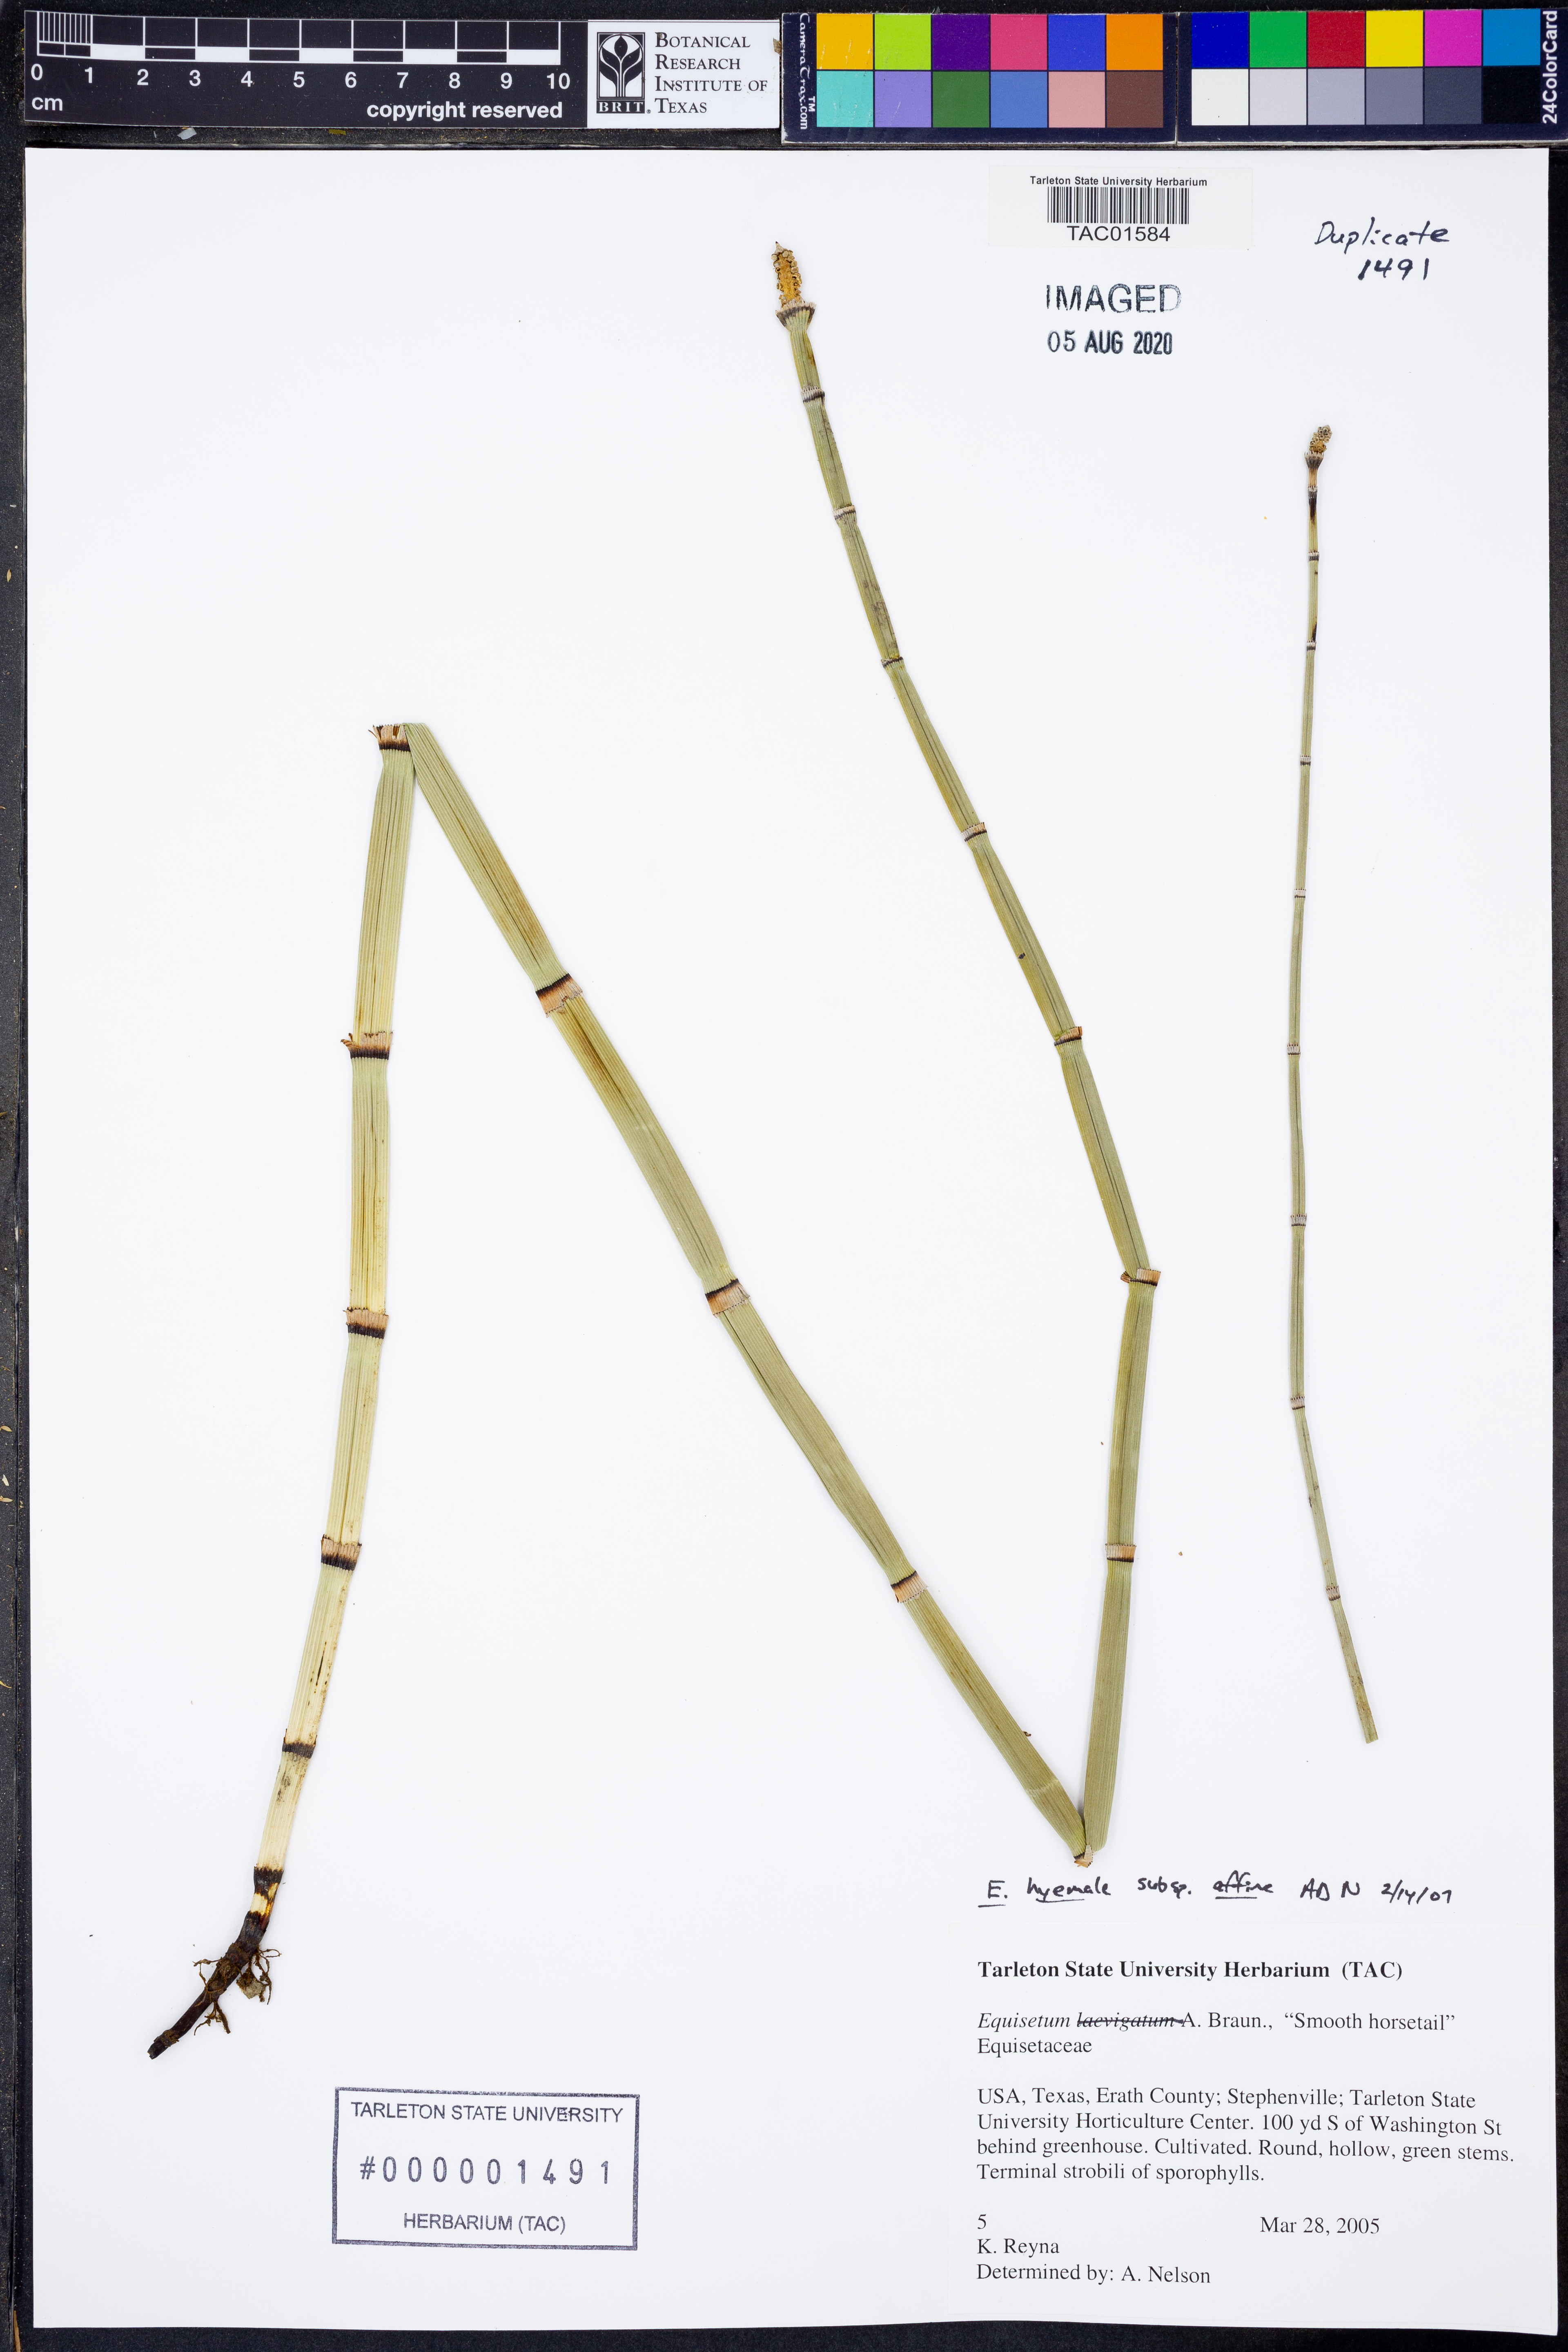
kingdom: Plantae
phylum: Tracheophyta
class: Polypodiopsida
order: Equisetales
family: Equisetaceae
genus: Equisetum
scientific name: Equisetum praealtum
